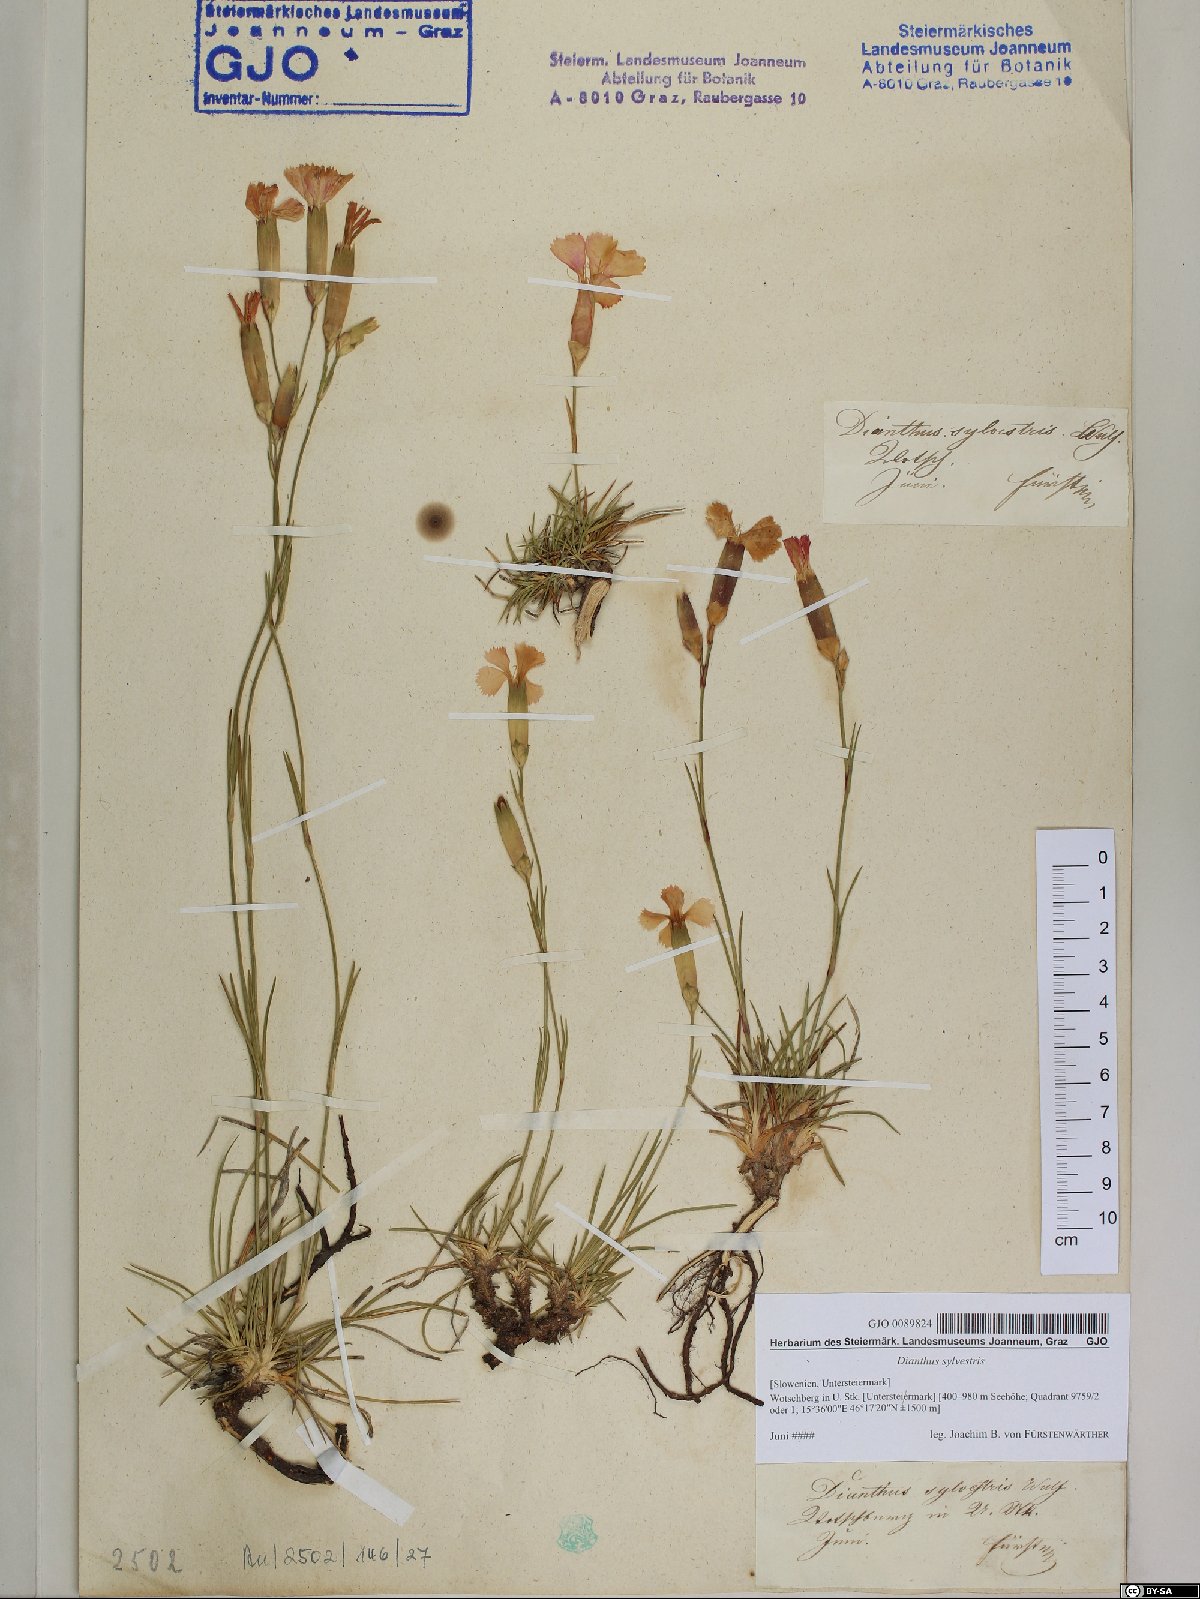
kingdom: Plantae
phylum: Tracheophyta
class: Magnoliopsida
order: Caryophyllales
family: Caryophyllaceae
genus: Dianthus
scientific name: Dianthus sylvestris
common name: Wood pink
